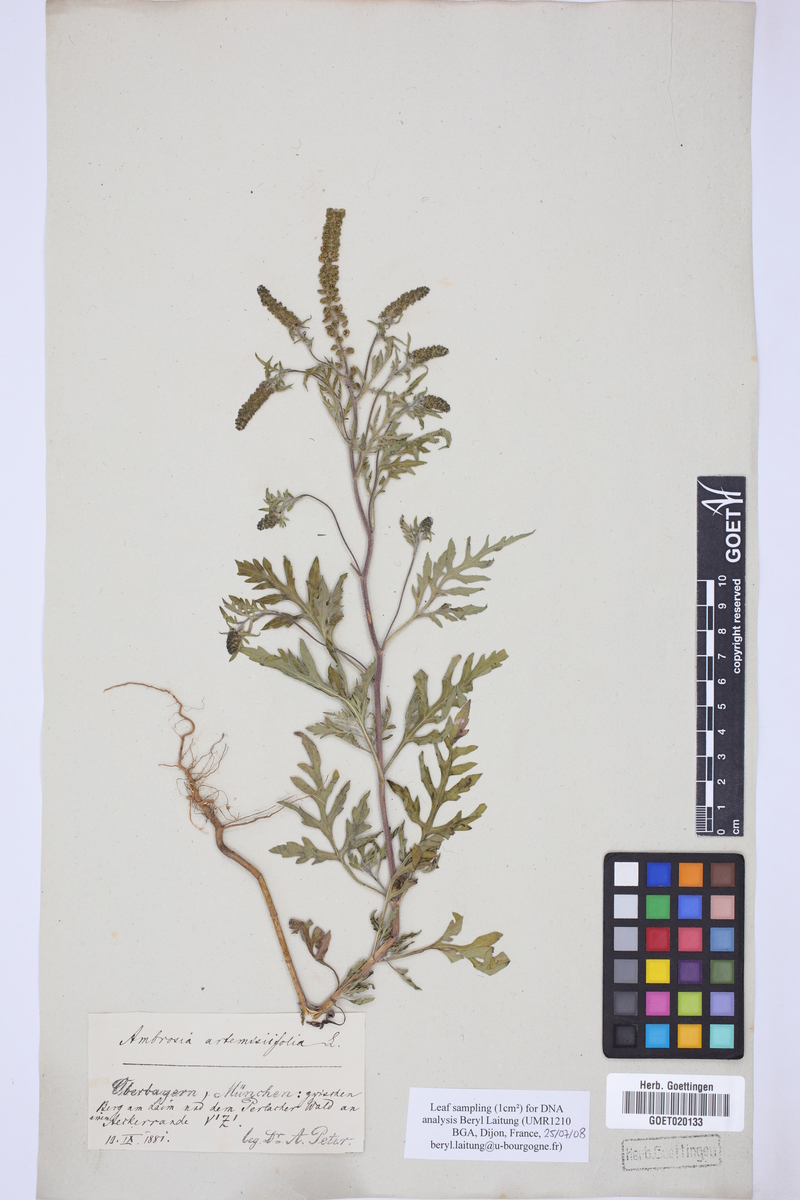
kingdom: Plantae
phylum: Tracheophyta
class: Magnoliopsida
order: Asterales
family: Asteraceae
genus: Ambrosia
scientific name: Ambrosia artemisiifolia
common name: Annual ragweed
